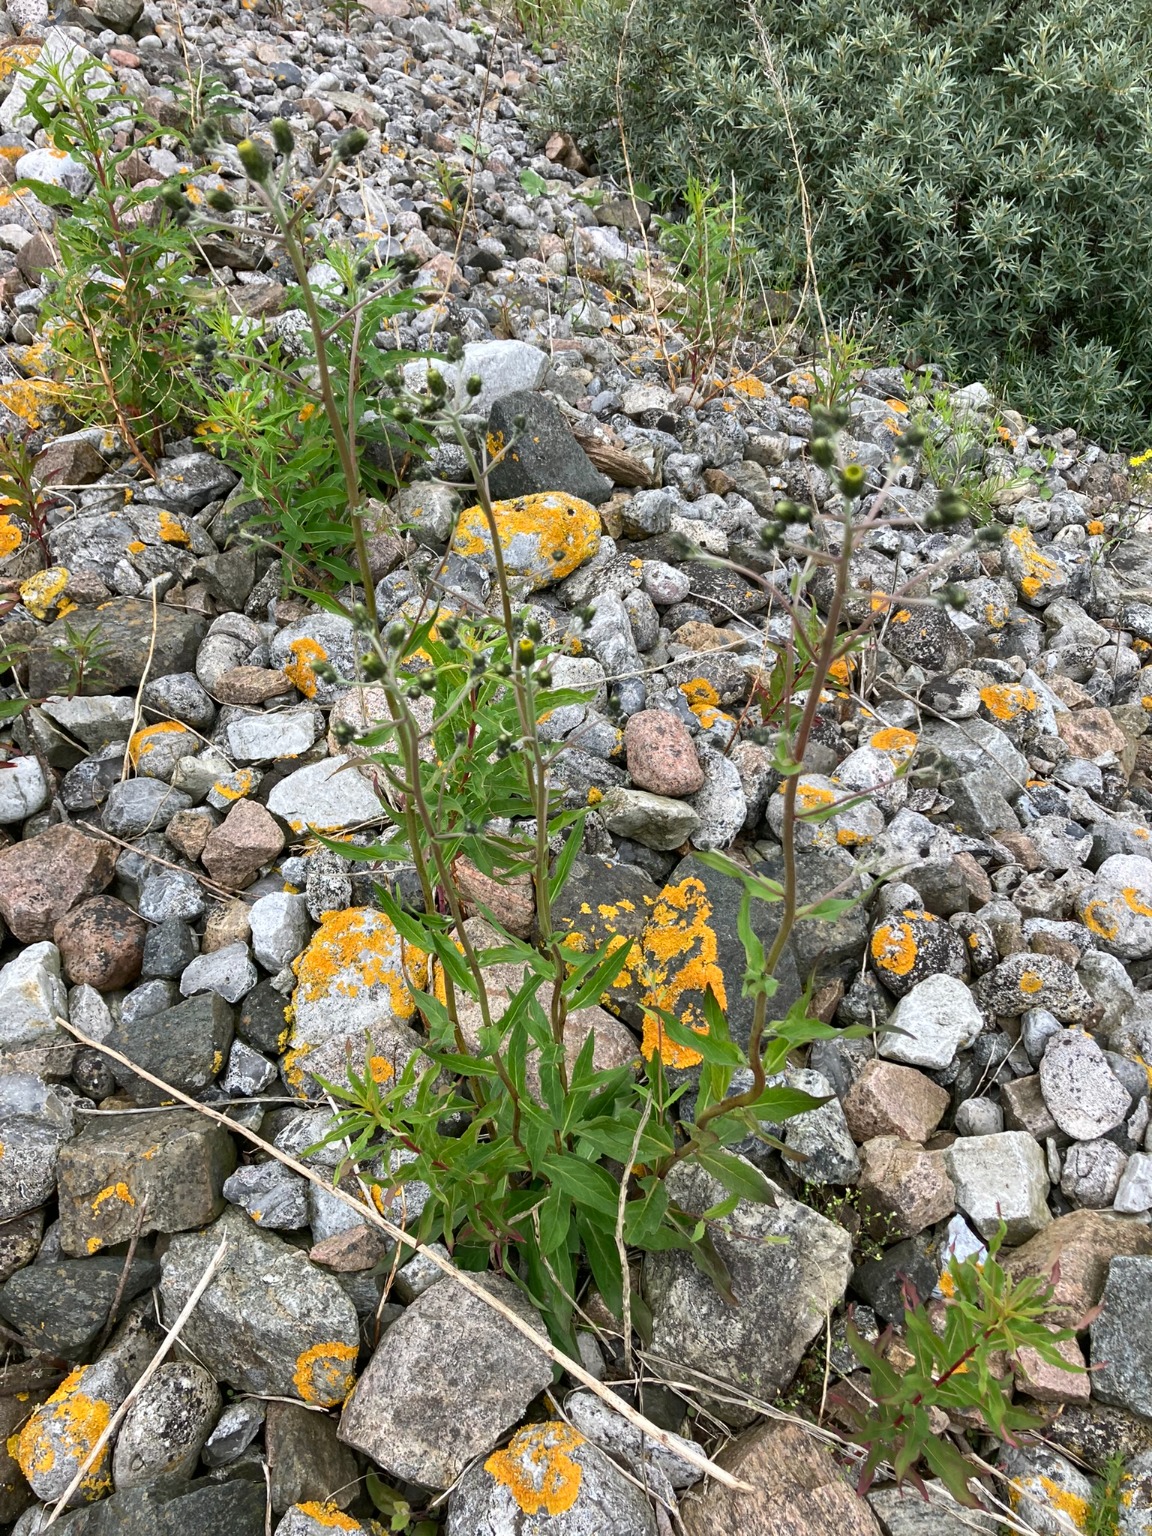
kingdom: Plantae
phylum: Tracheophyta
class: Magnoliopsida
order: Asterales
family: Asteraceae
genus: Hieracium
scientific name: Hieracium umbellatum
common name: Smalbladet høgeurt
